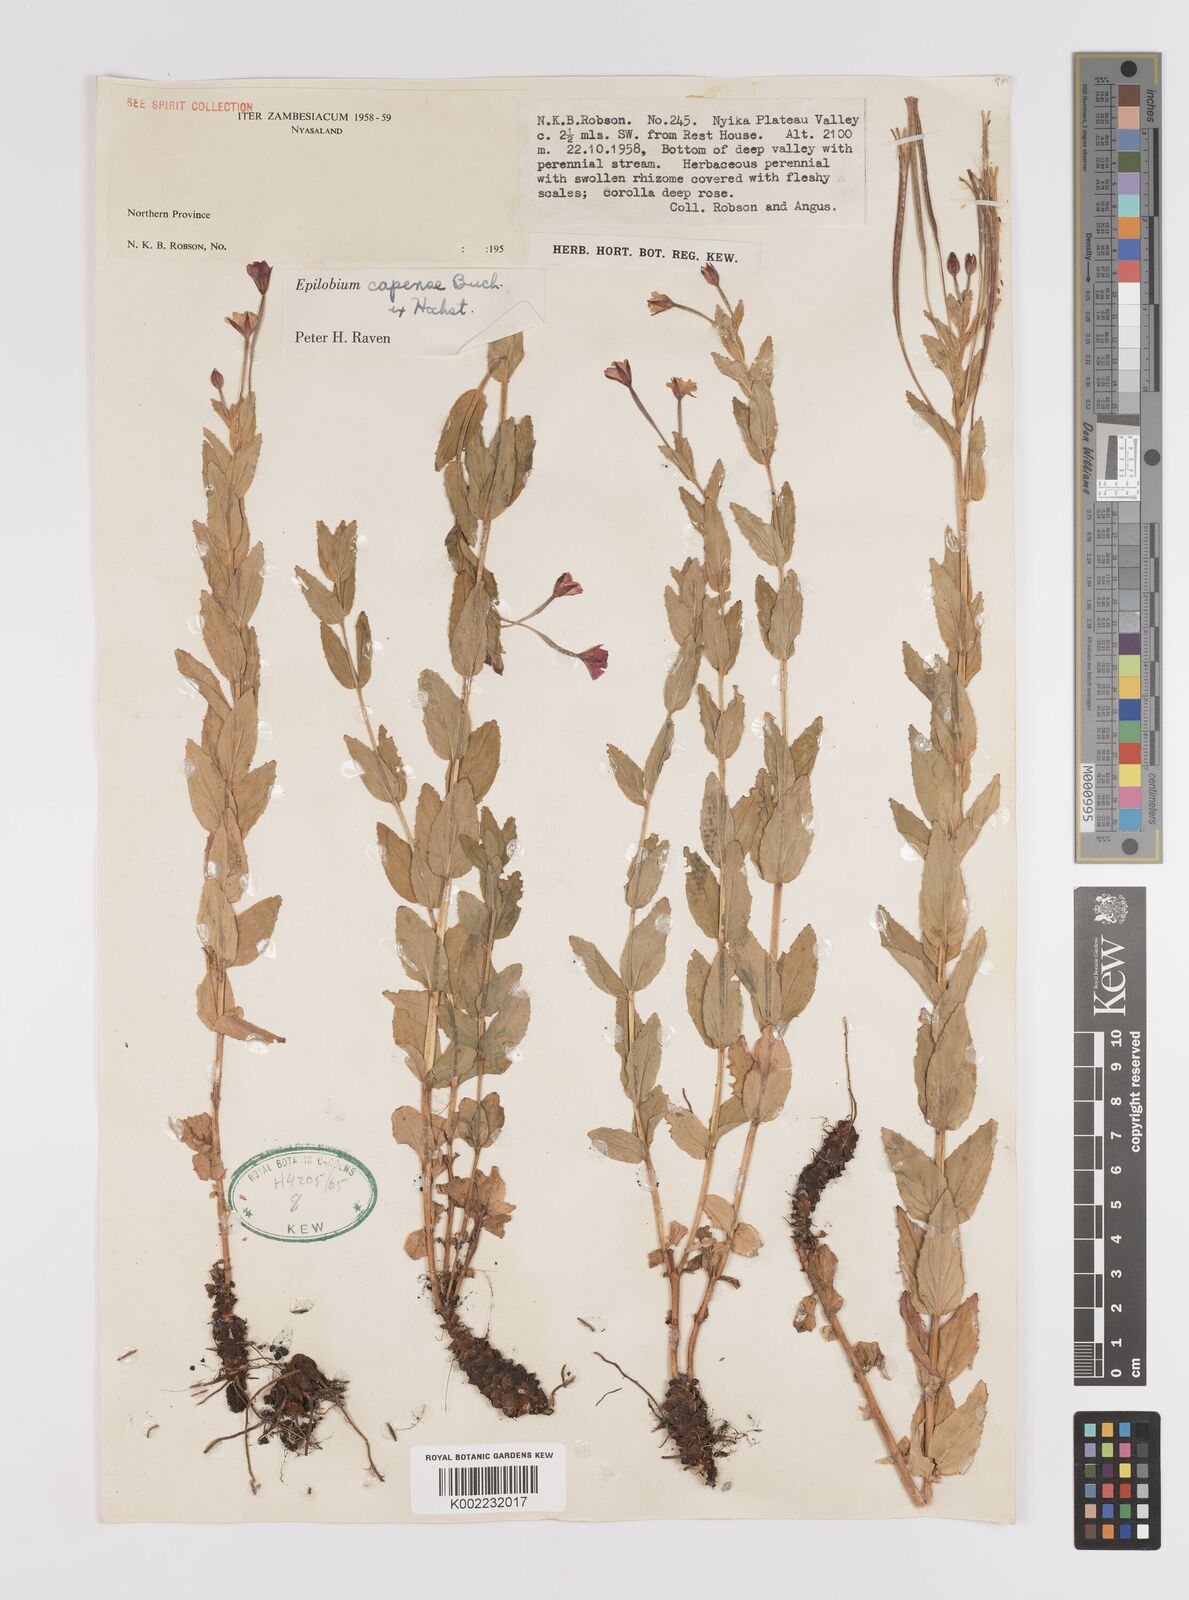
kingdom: Plantae
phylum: Tracheophyta
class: Magnoliopsida
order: Myrtales
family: Onagraceae
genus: Epilobium
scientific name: Epilobium capense
